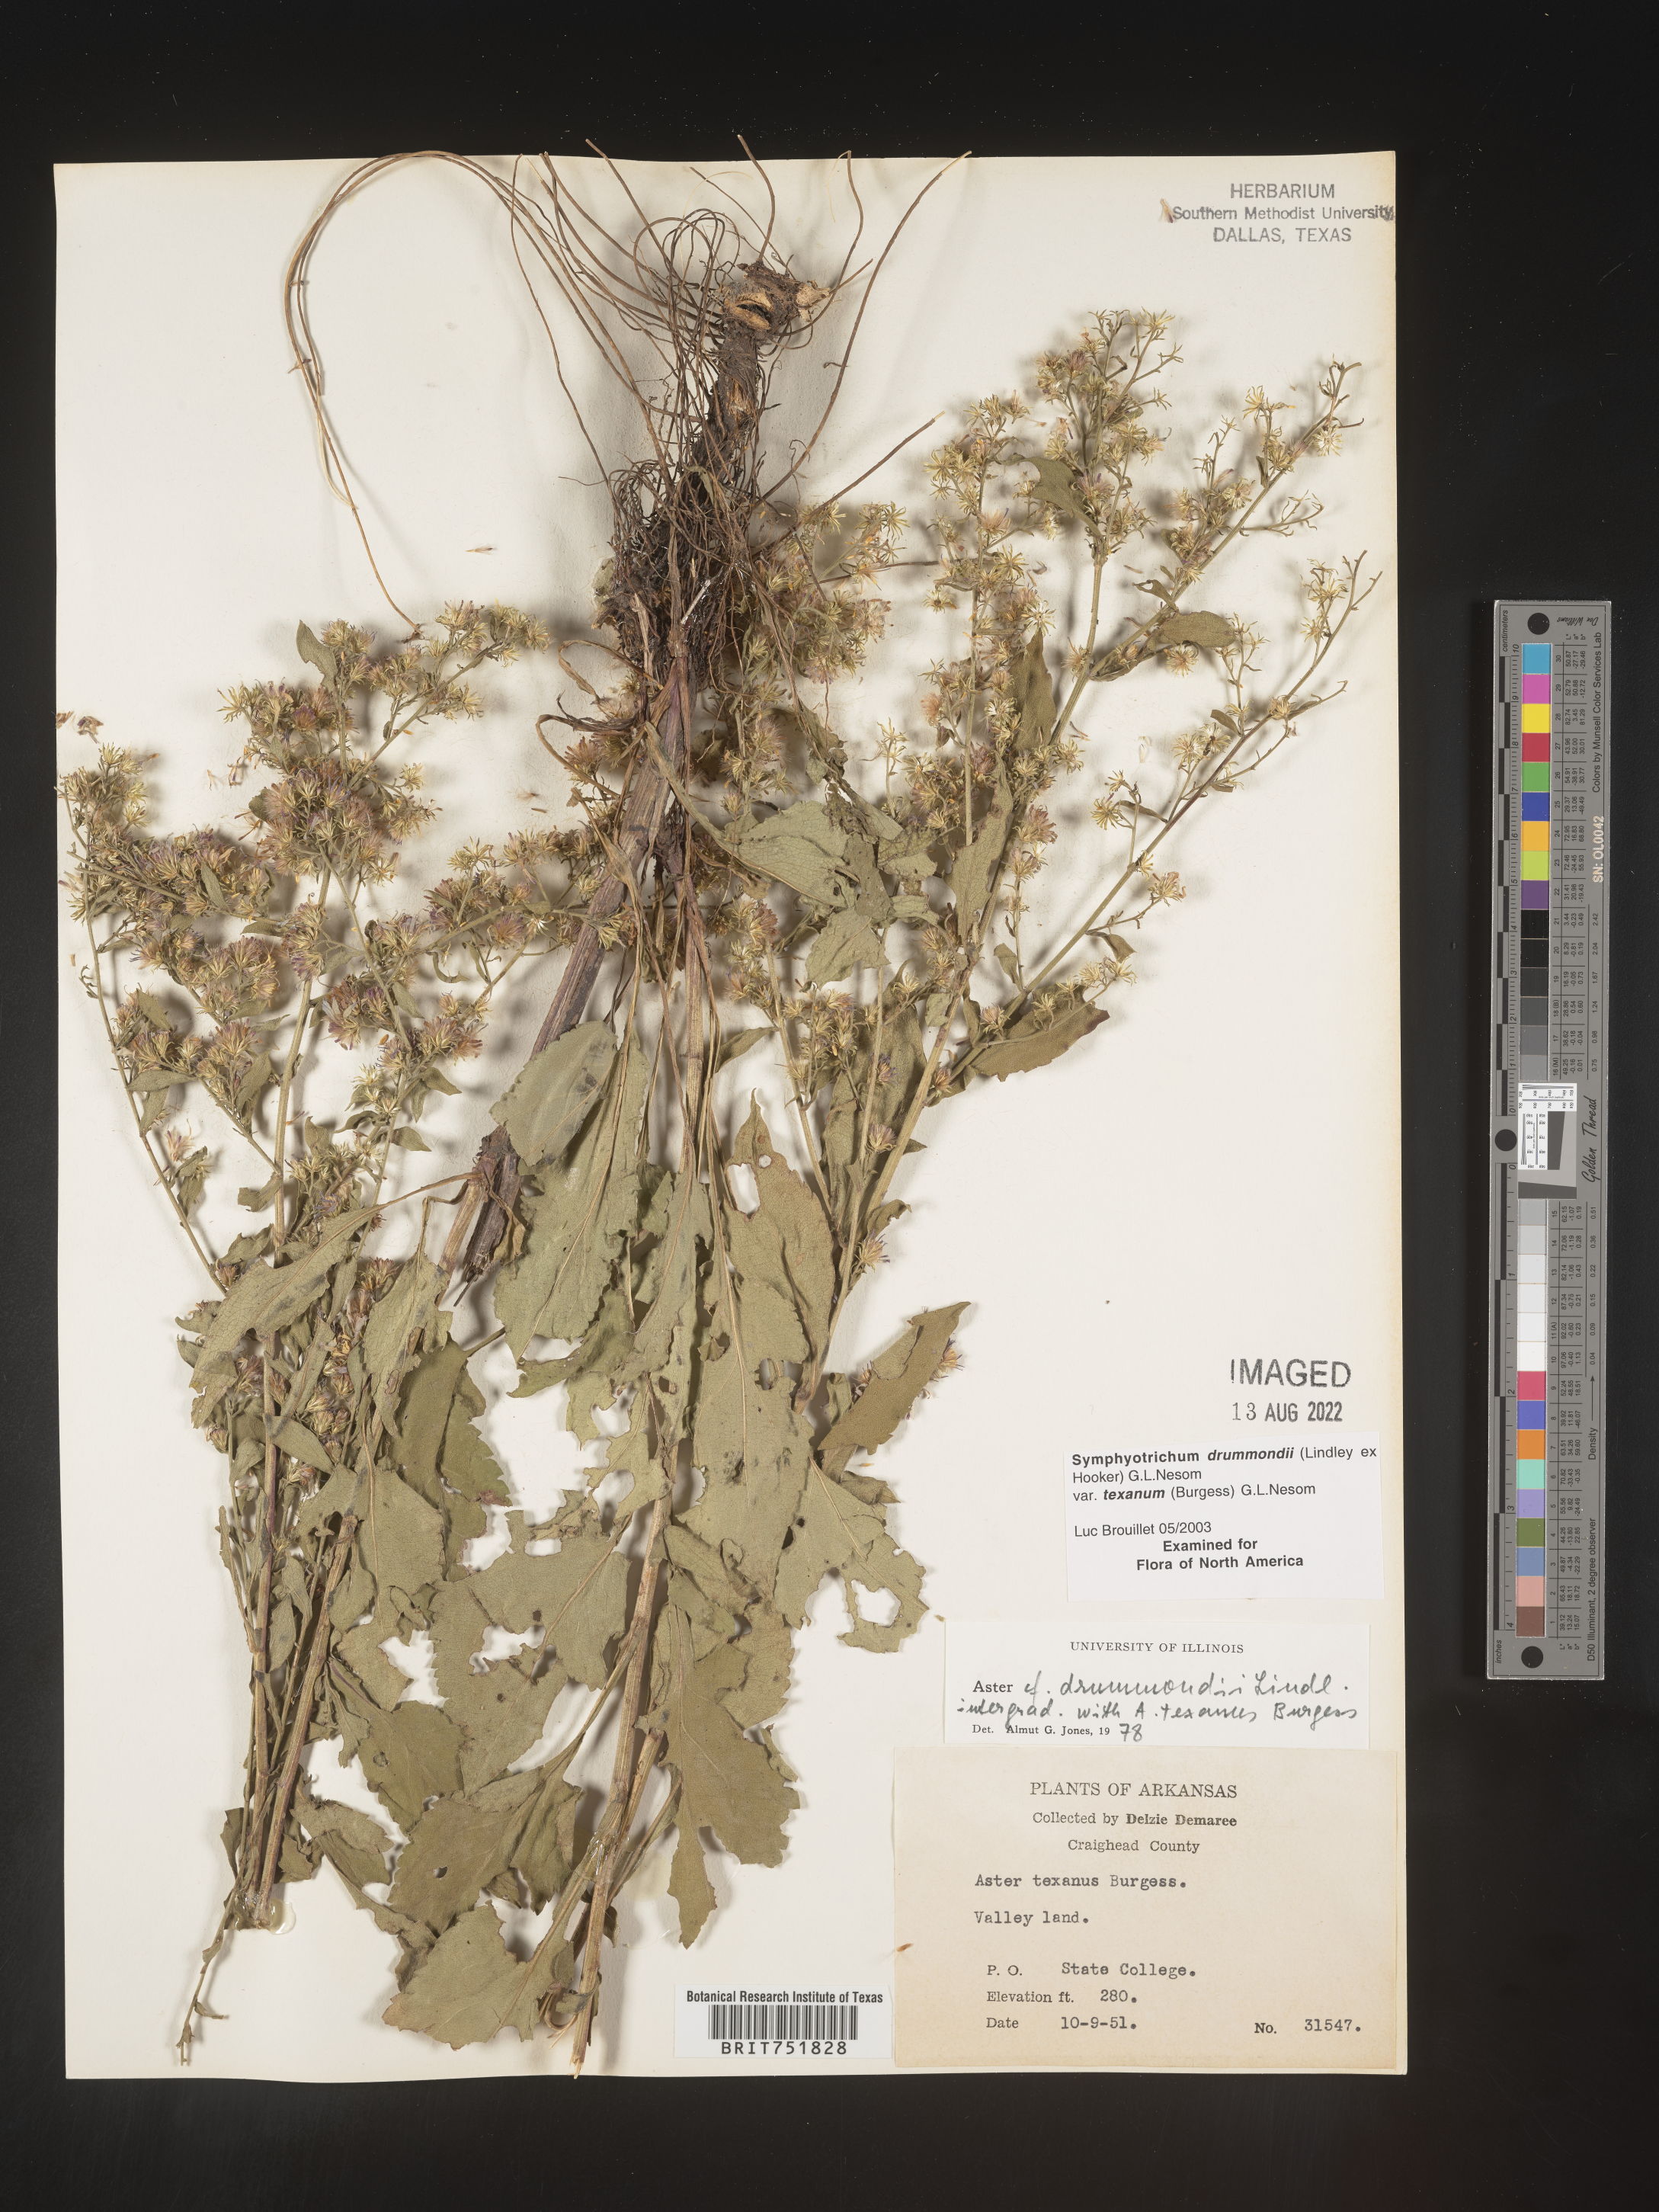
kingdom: Plantae
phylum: Tracheophyta
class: Magnoliopsida
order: Asterales
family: Asteraceae
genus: Symphyotrichum
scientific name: Symphyotrichum drummondii
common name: Drummond's aster
